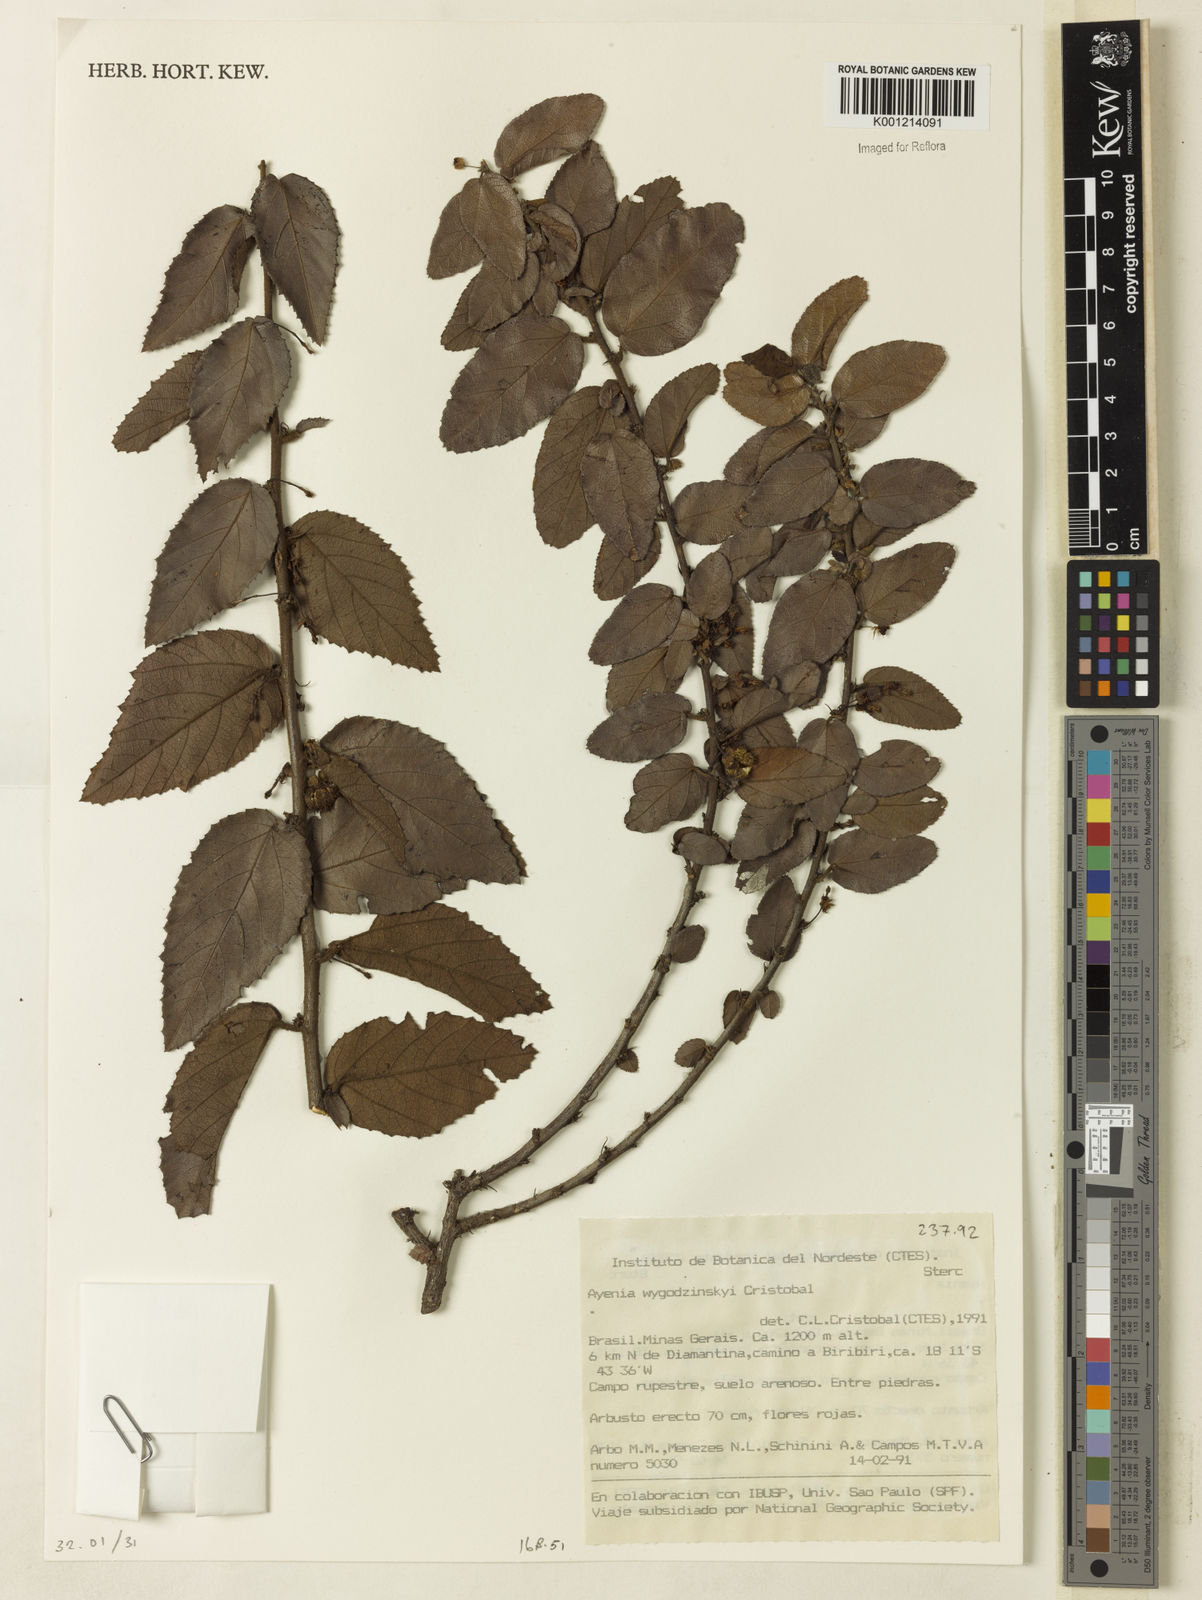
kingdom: Plantae
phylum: Tracheophyta
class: Magnoliopsida
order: Malvales
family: Malvaceae
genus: Ayenia
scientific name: Ayenia
